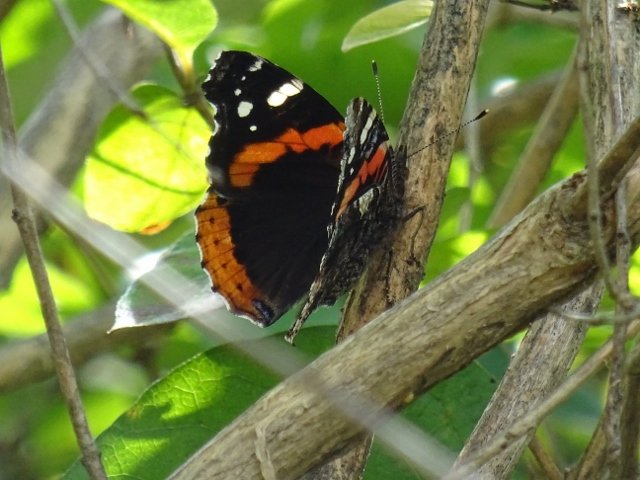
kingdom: Animalia
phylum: Arthropoda
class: Insecta
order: Lepidoptera
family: Nymphalidae
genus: Vanessa
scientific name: Vanessa atalanta
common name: Red Admiral
